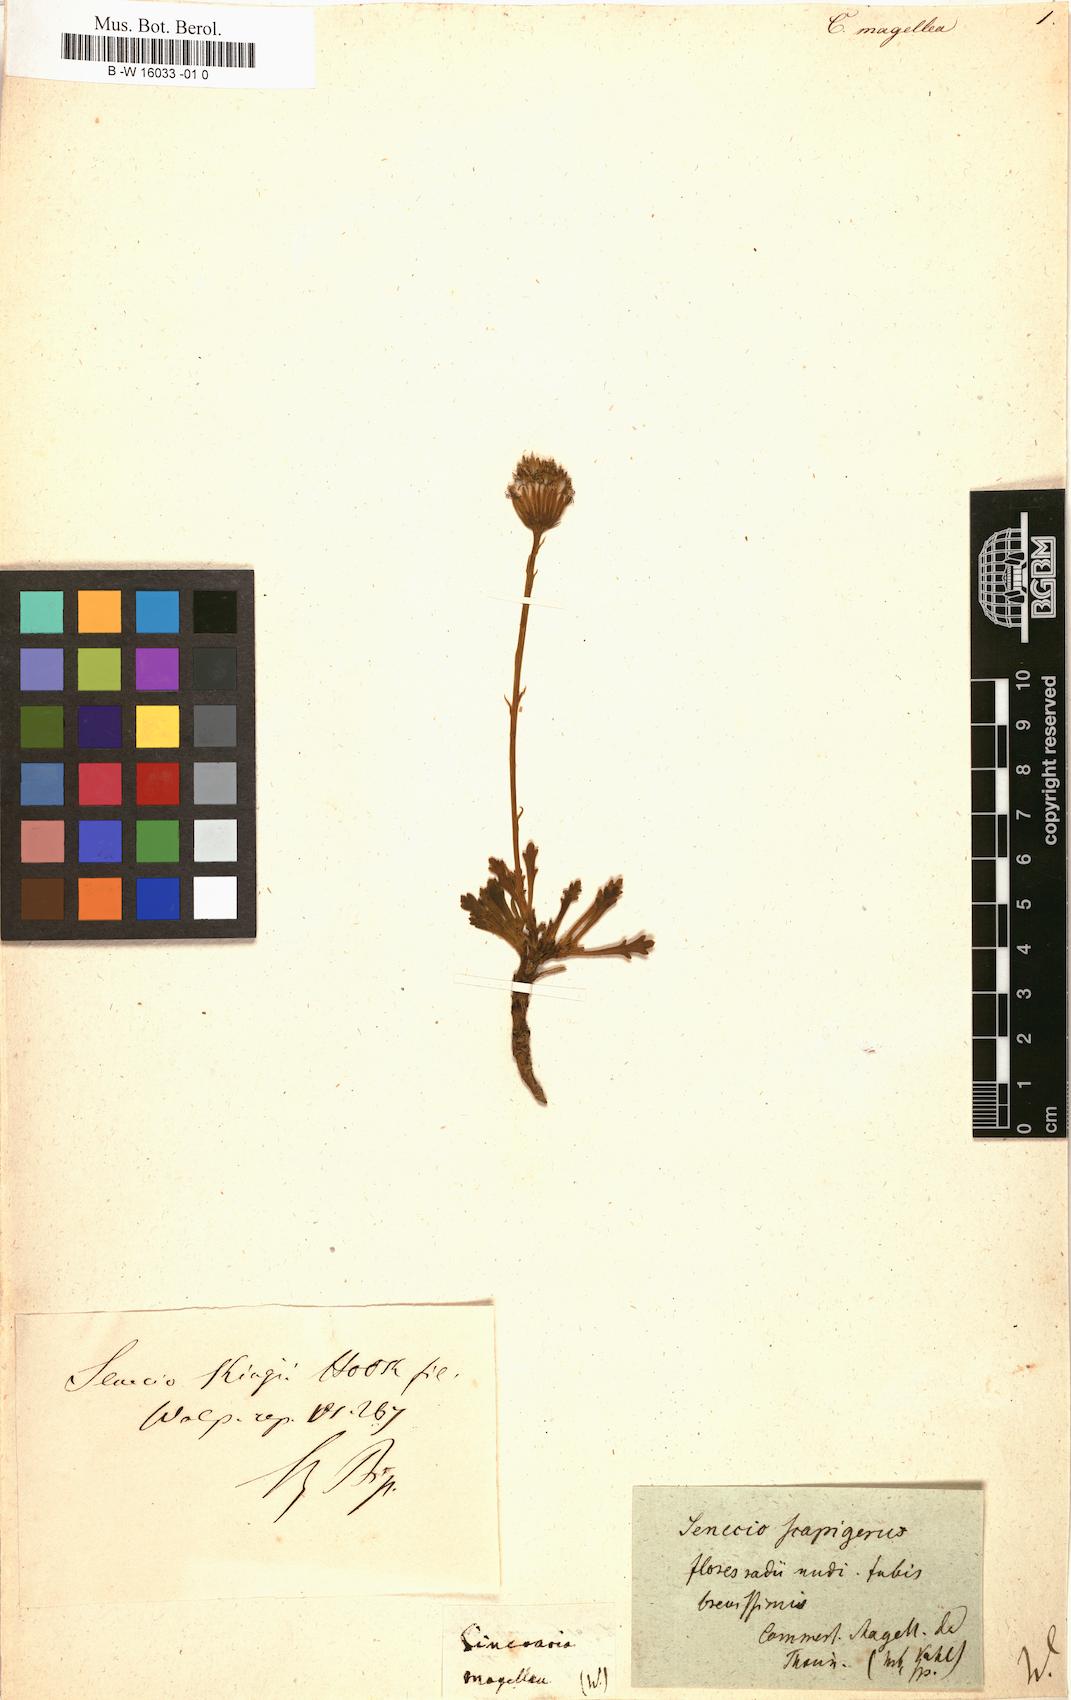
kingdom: Plantae
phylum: Tracheophyta
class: Magnoliopsida
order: Asterales
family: Asteraceae
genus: Cineraria
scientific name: Cineraria
